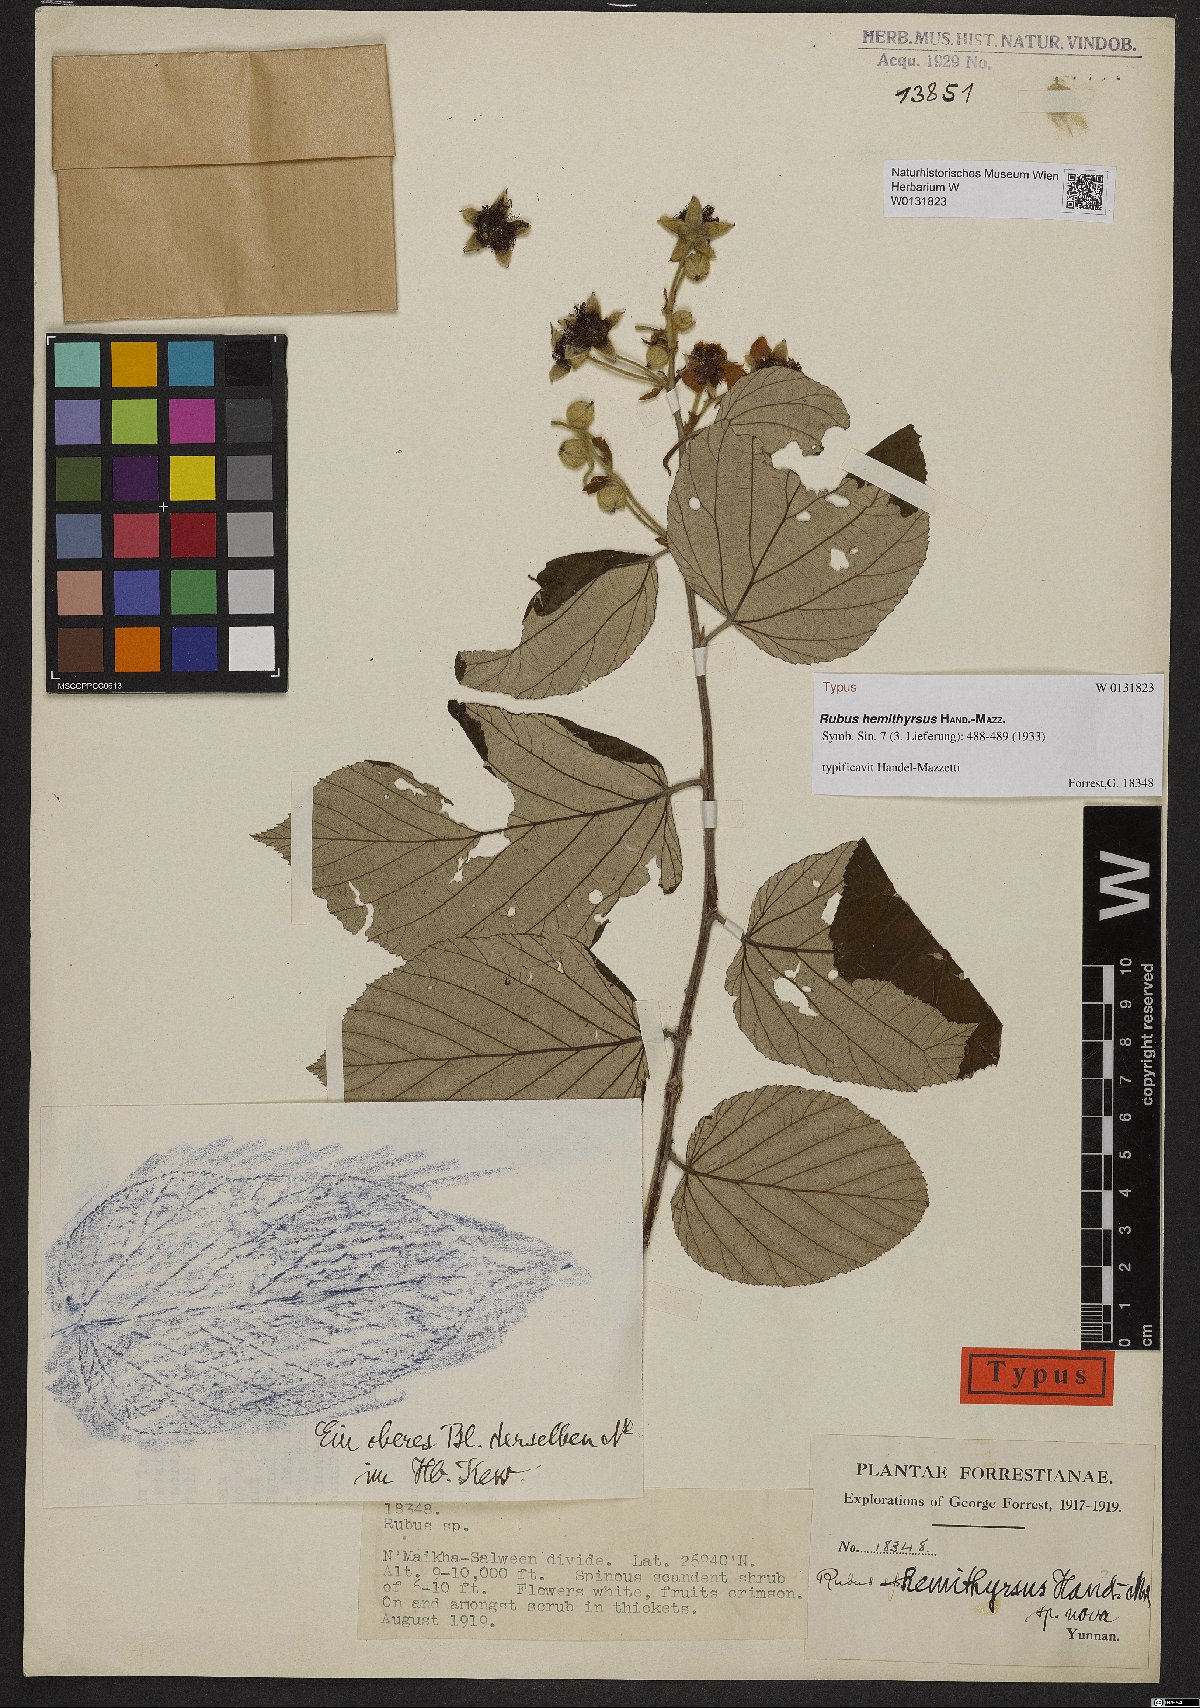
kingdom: Plantae
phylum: Tracheophyta
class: Magnoliopsida
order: Rosales
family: Rosaceae
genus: Rubus
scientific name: Rubus hemithyrsus
